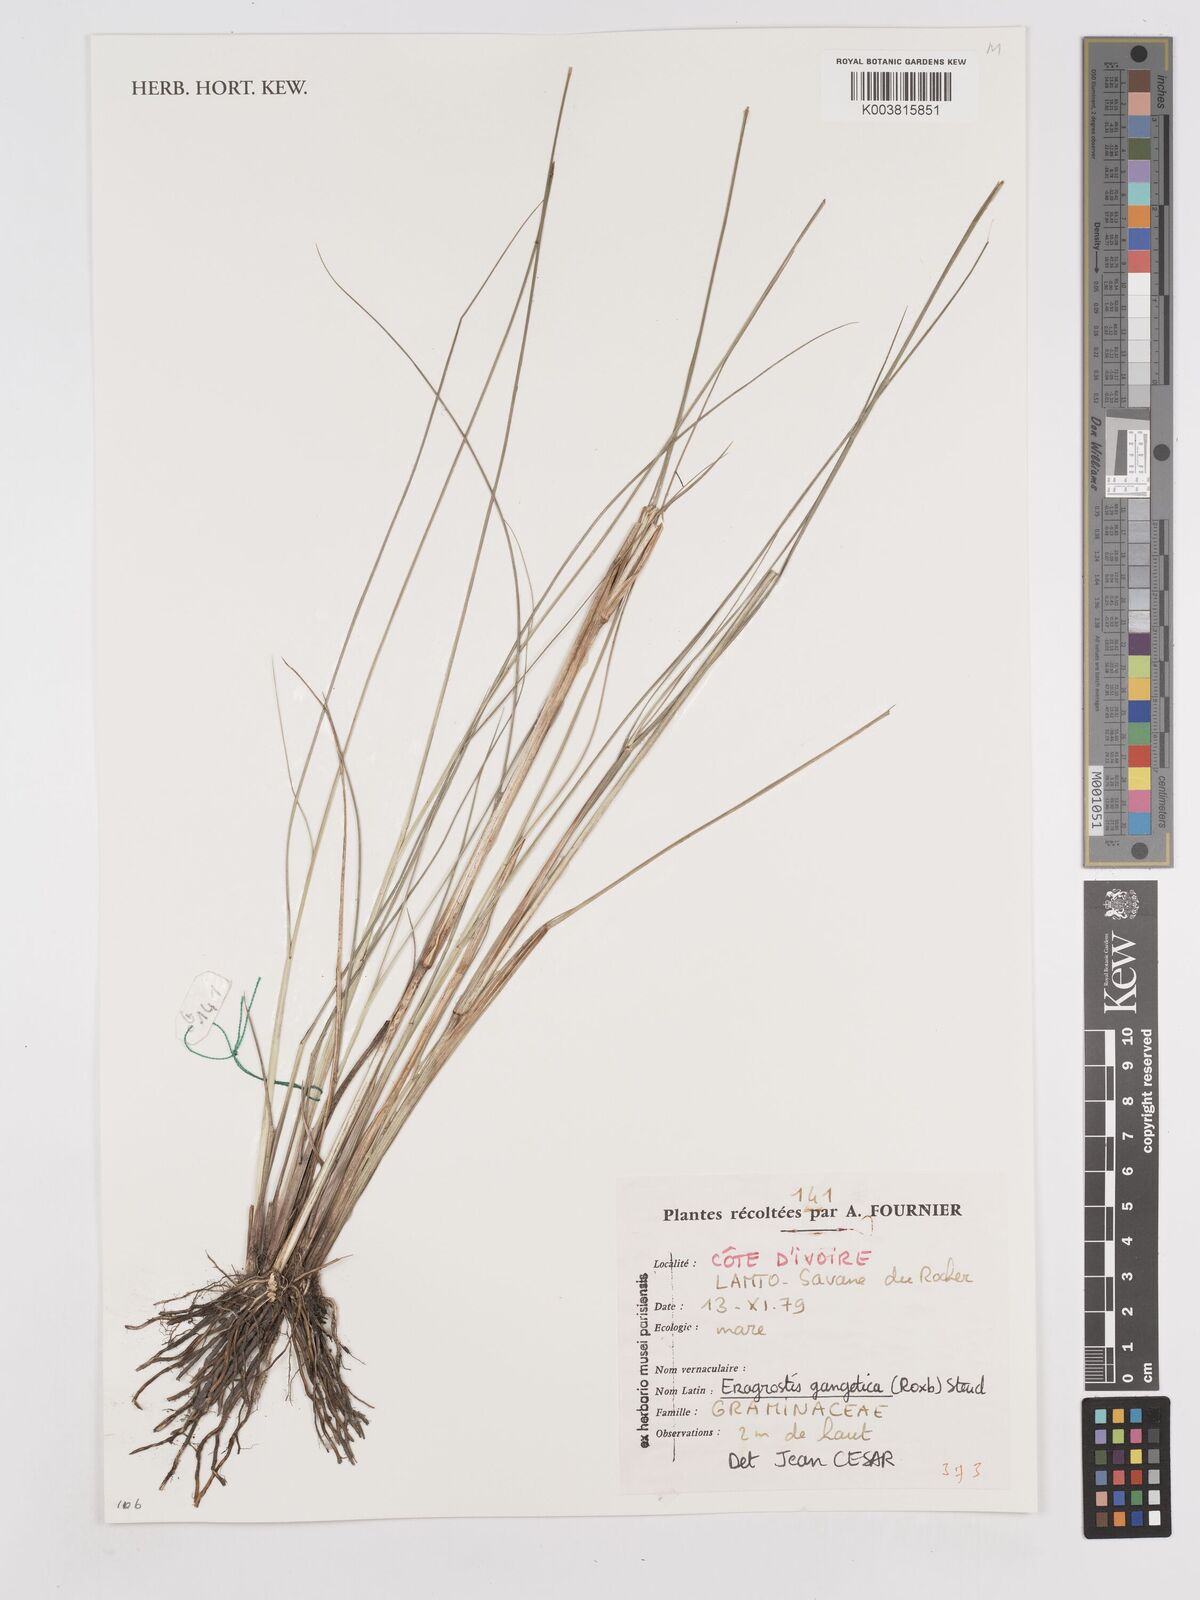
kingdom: Plantae
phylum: Tracheophyta
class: Liliopsida
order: Poales
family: Poaceae
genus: Eragrostis
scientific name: Eragrostis gangetica
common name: Slimflower lovegrass
